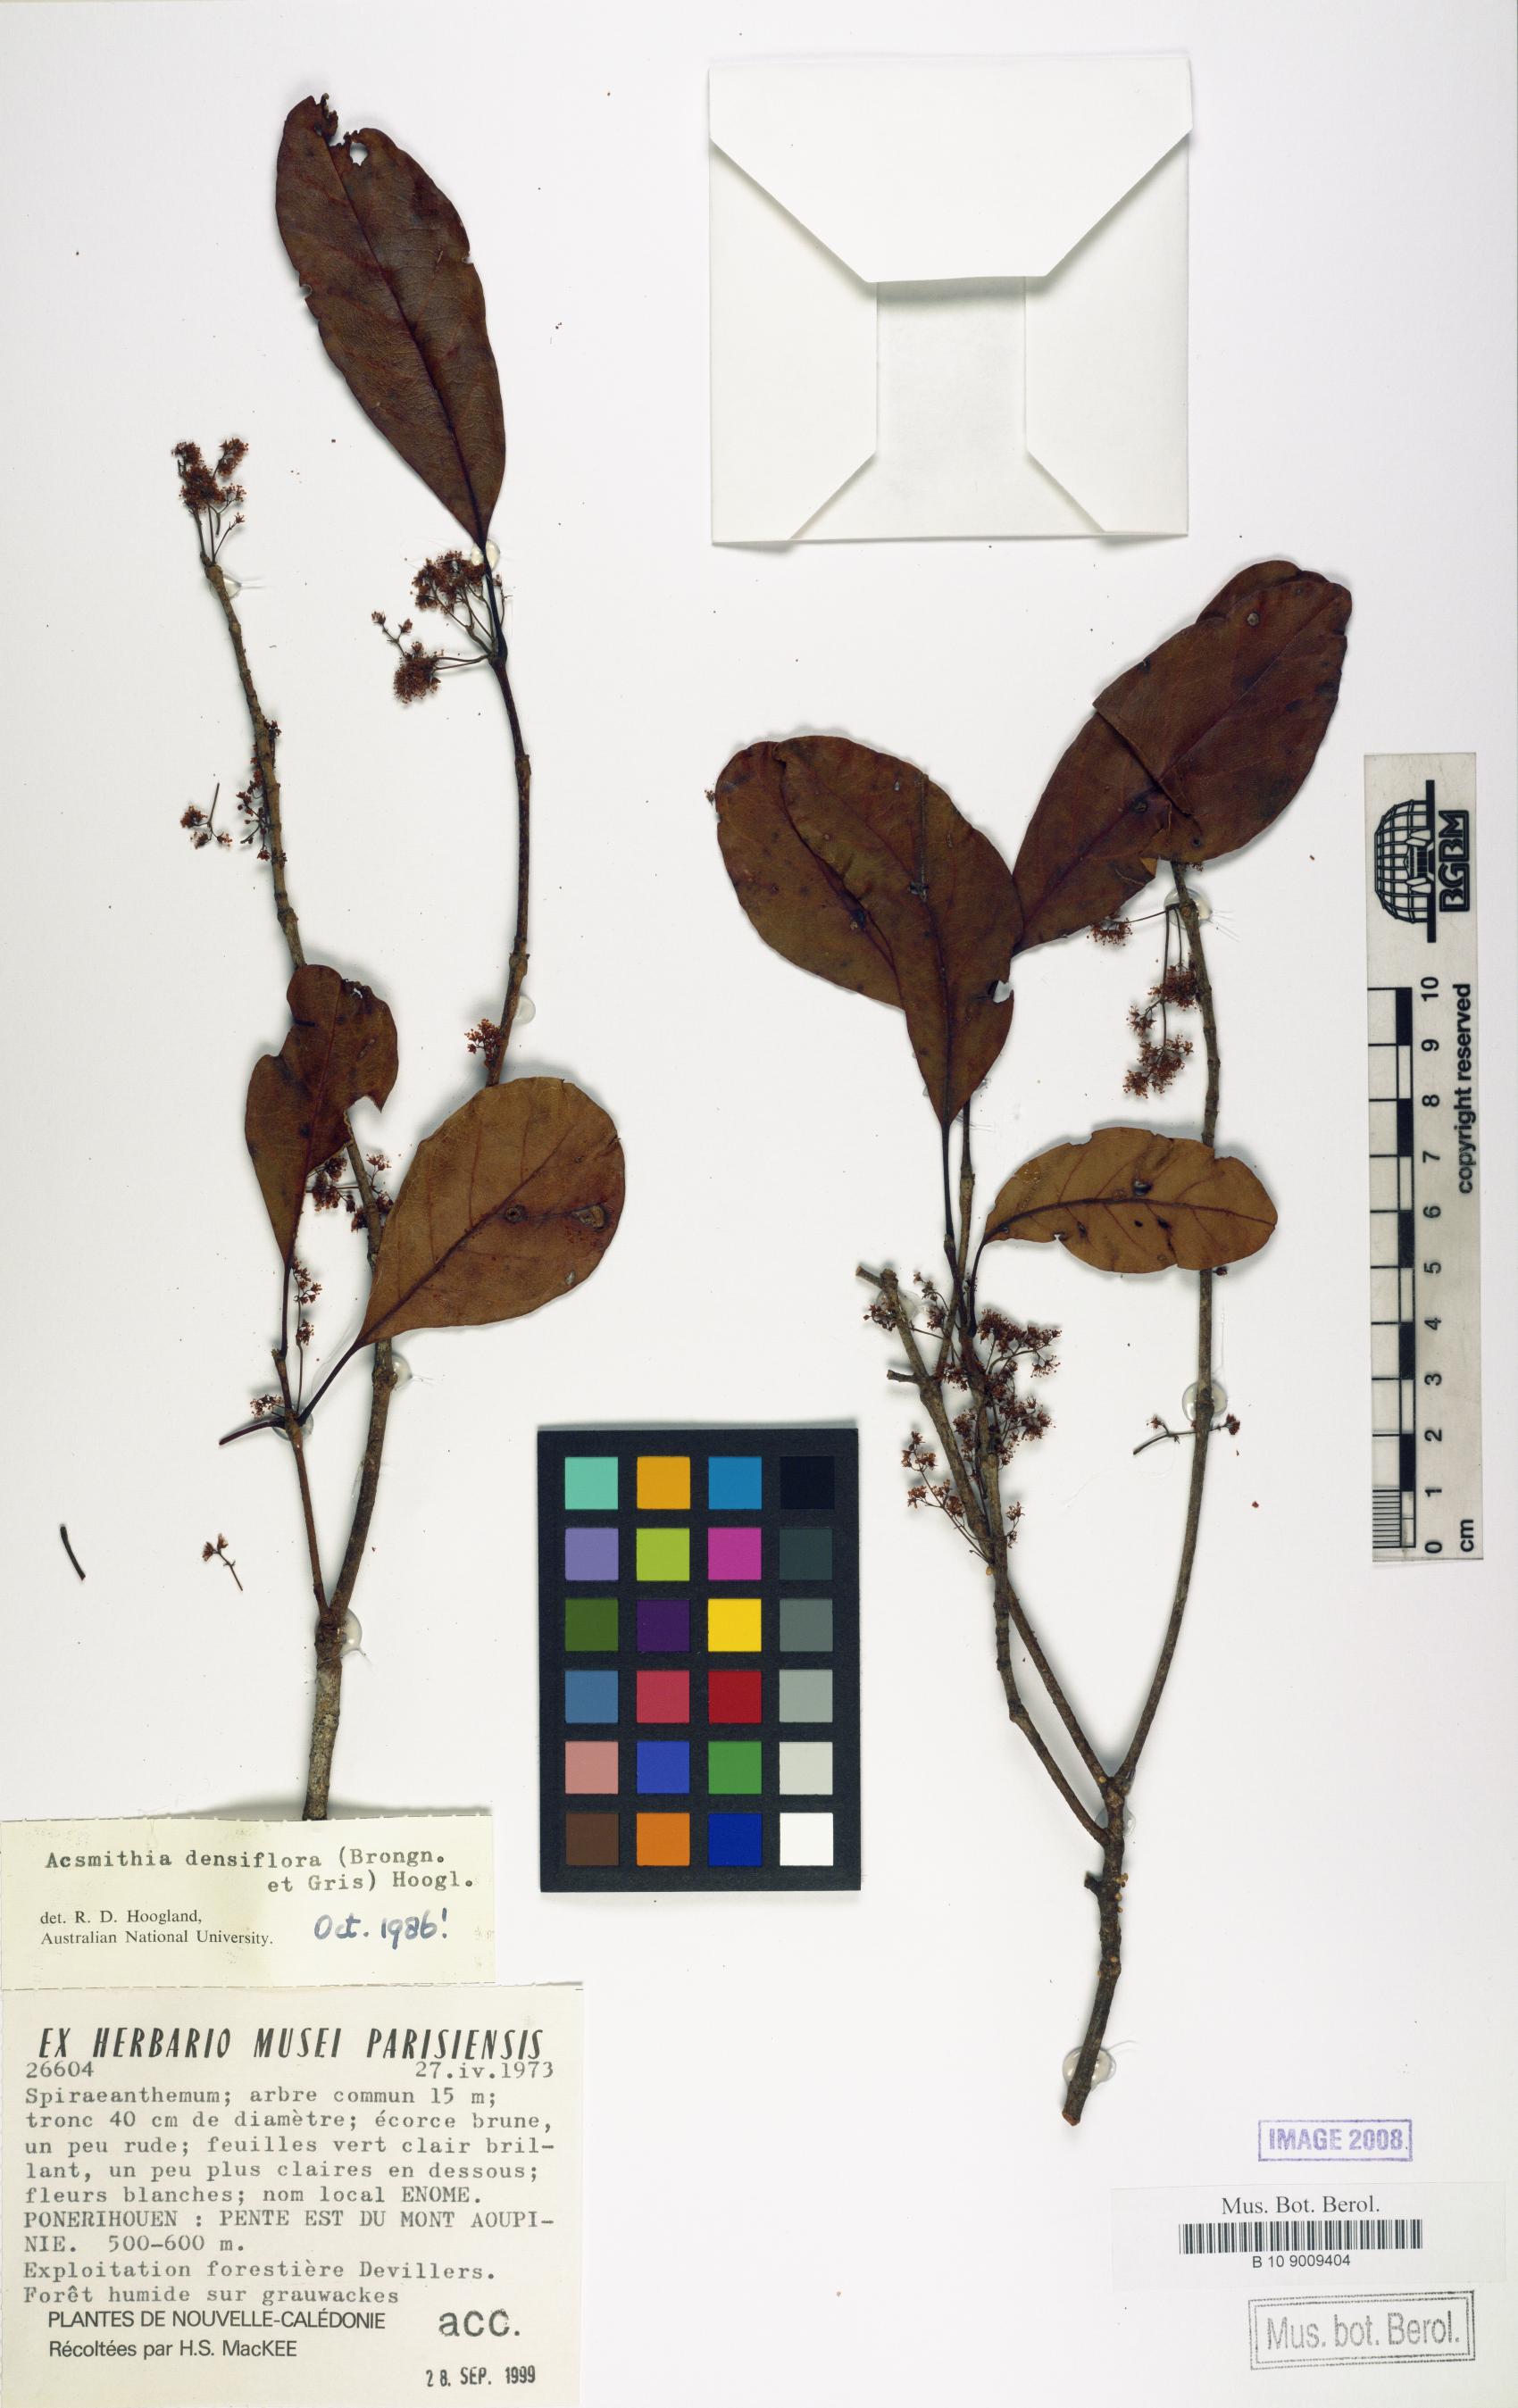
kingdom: Plantae
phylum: Tracheophyta
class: Magnoliopsida
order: Oxalidales
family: Cunoniaceae
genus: Spiraeanthemum
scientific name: Spiraeanthemum densiflorum
